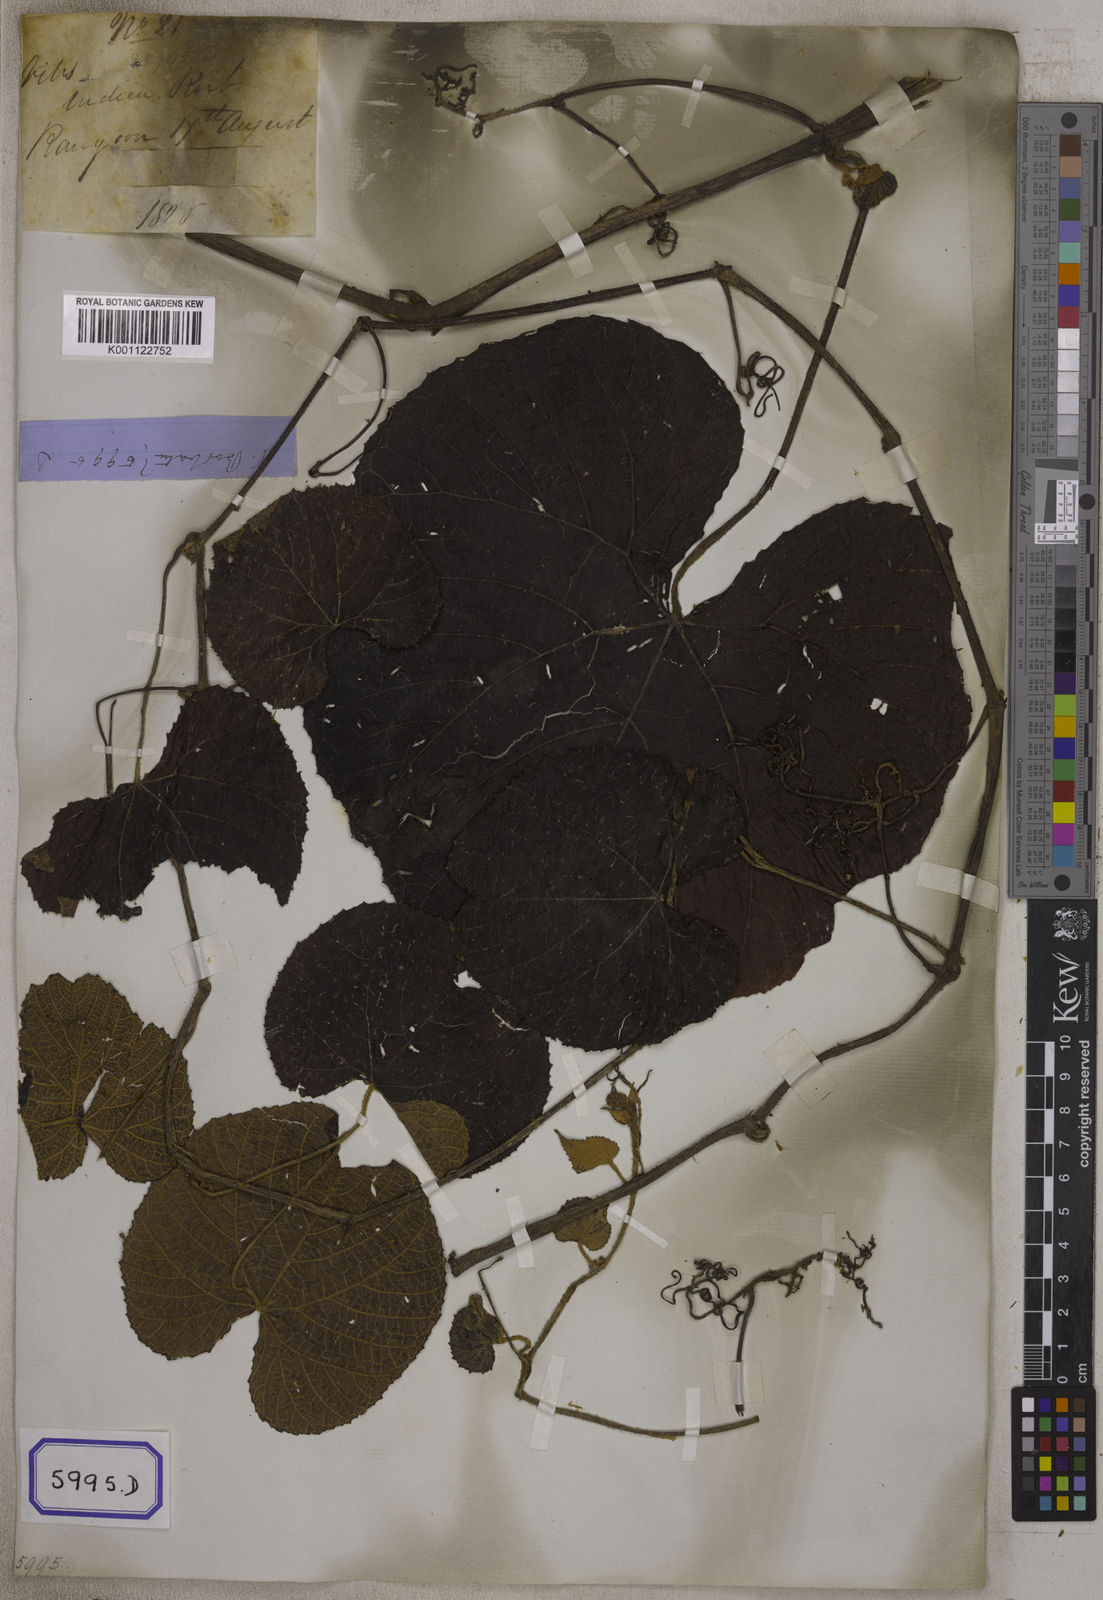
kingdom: Plantae
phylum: Tracheophyta
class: Magnoliopsida
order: Vitales
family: Vitaceae
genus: Vitis
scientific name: Vitis
